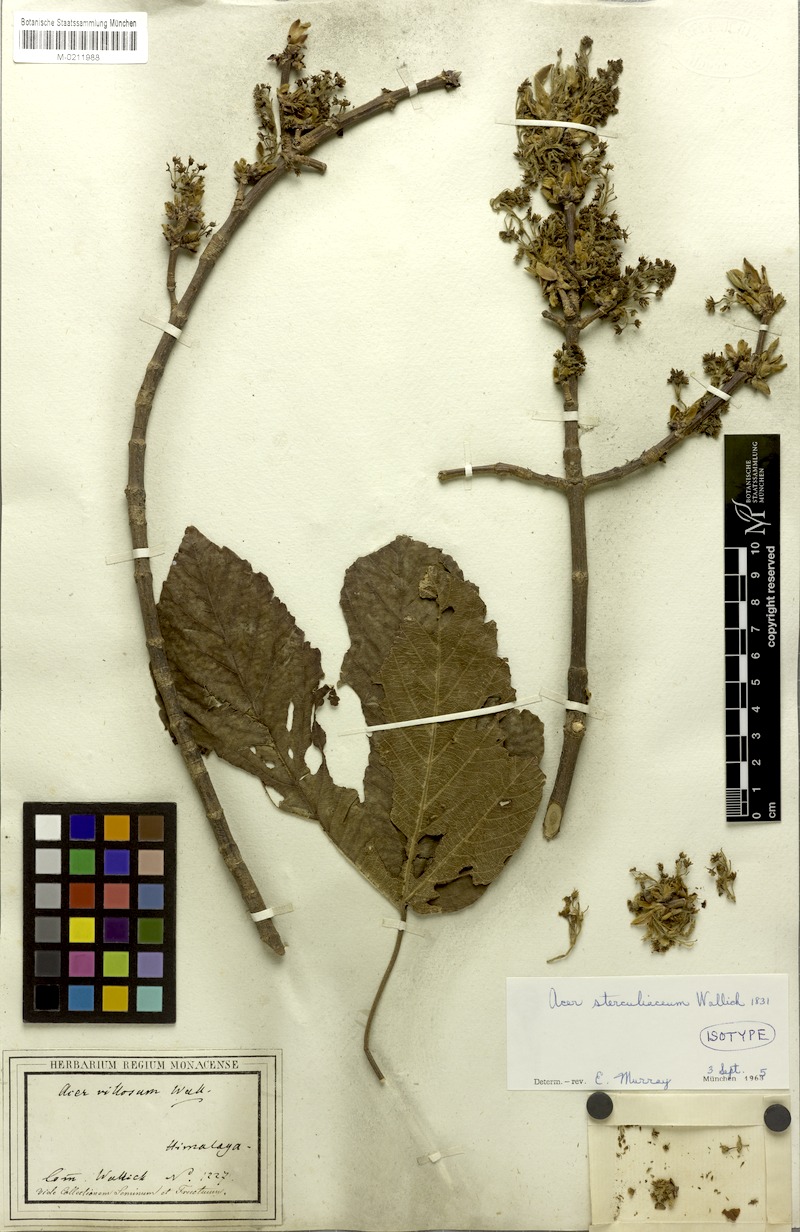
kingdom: Plantae
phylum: Tracheophyta
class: Magnoliopsida
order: Sapindales
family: Sapindaceae
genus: Acer
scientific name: Acer sterculiaceum
